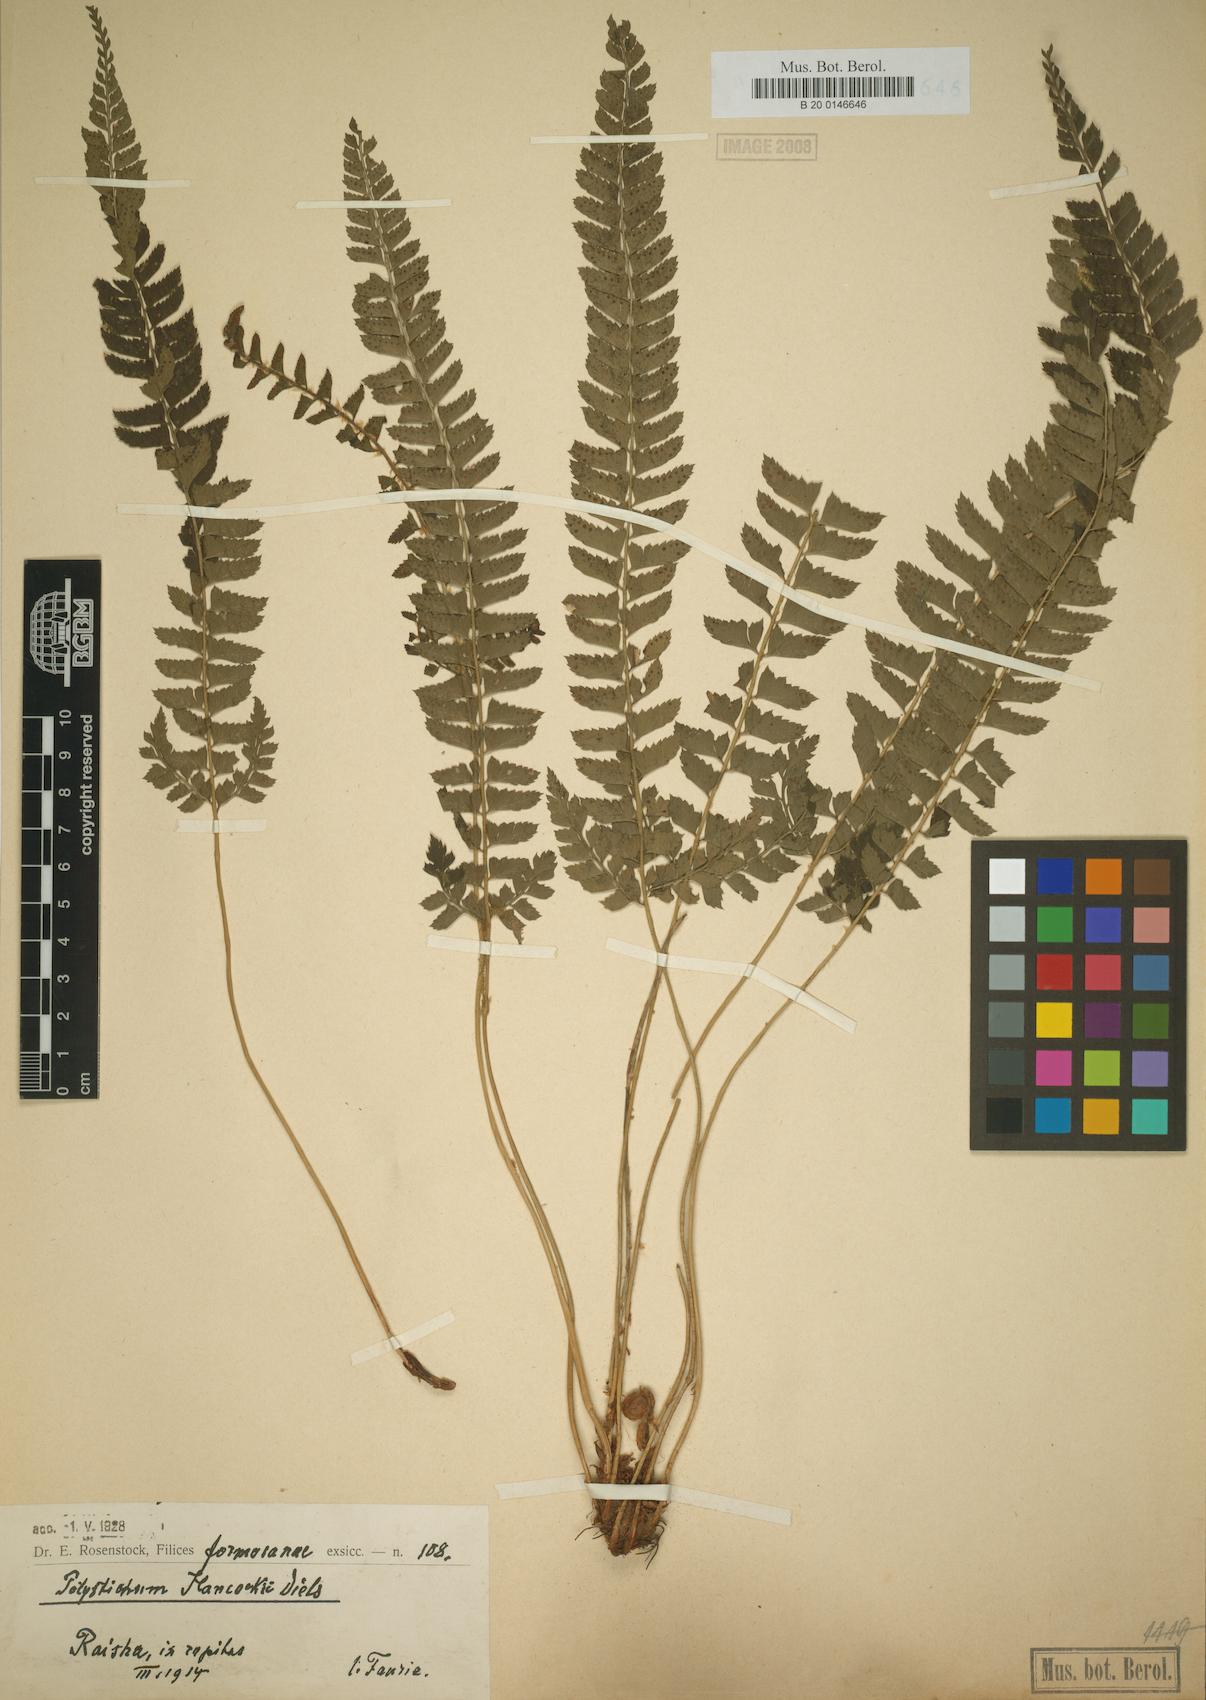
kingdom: Plantae
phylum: Tracheophyta
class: Polypodiopsida
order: Polypodiales
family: Dryopteridaceae
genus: Polystichum
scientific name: Polystichum hancockii
